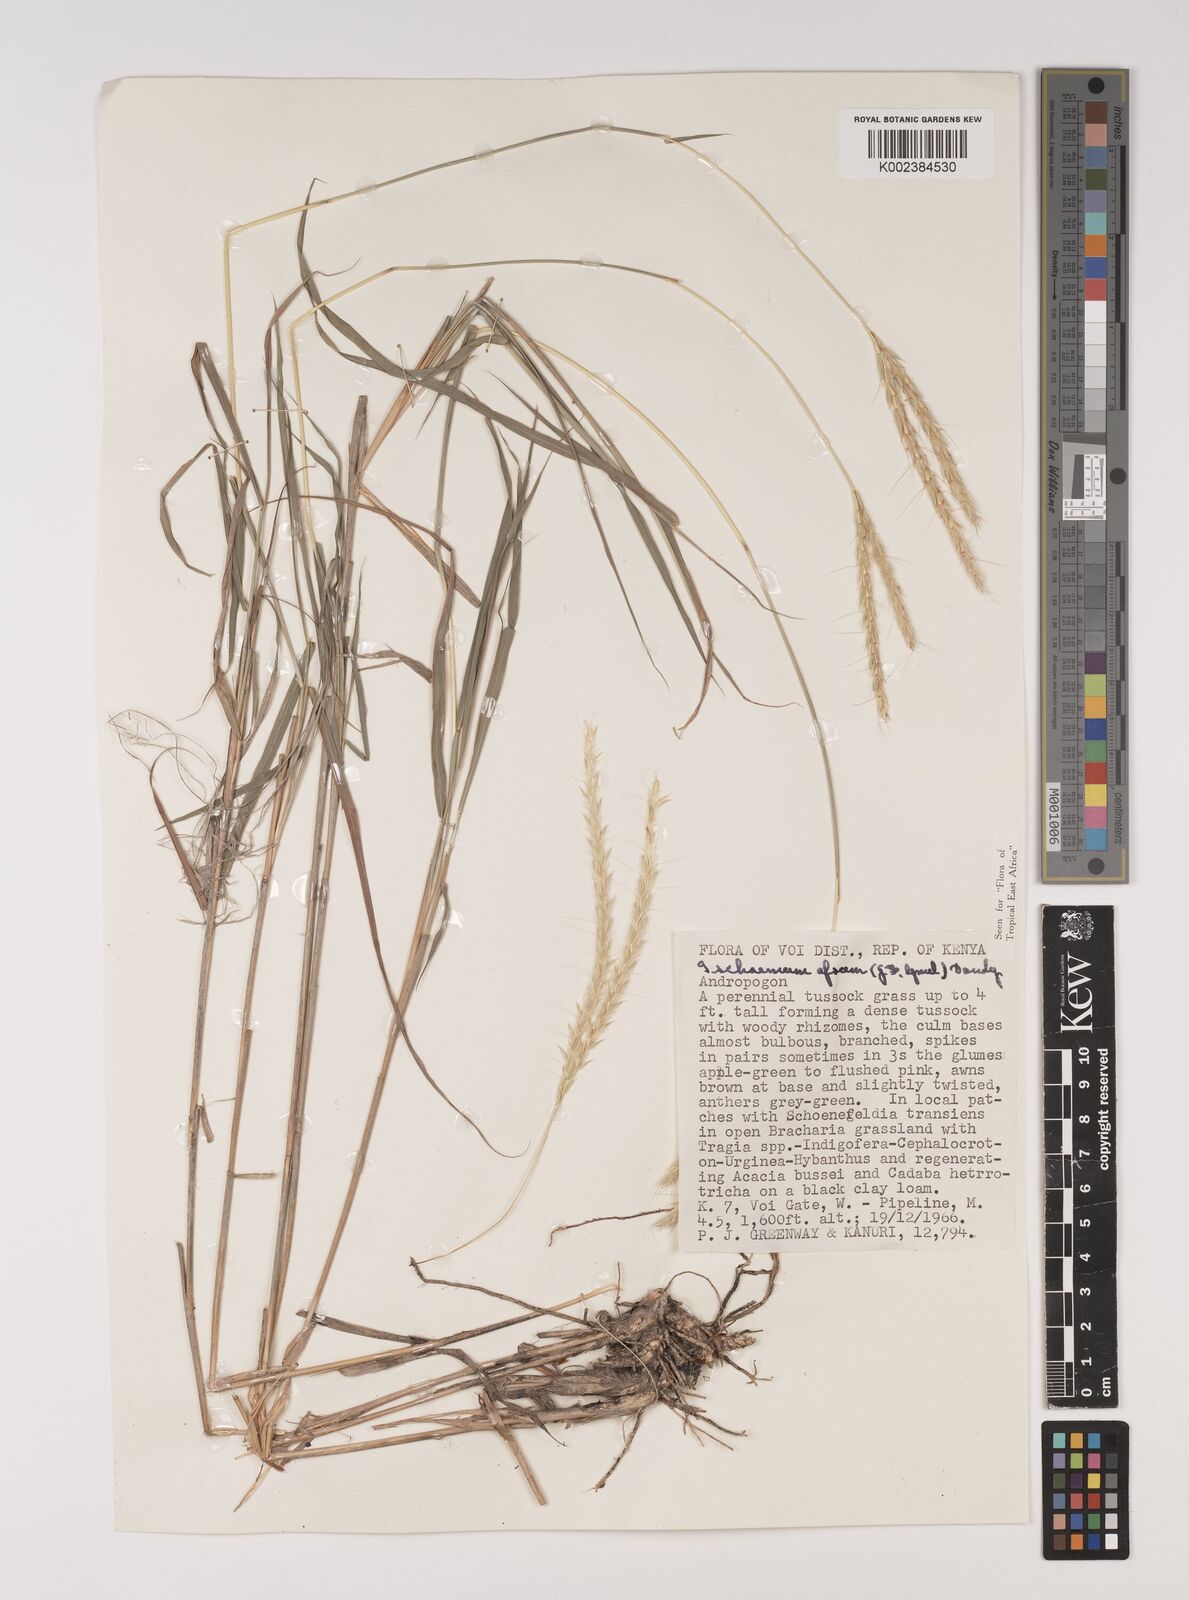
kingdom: Plantae
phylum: Tracheophyta
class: Liliopsida
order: Poales
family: Poaceae
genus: Ischaemum
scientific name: Ischaemum afrum
